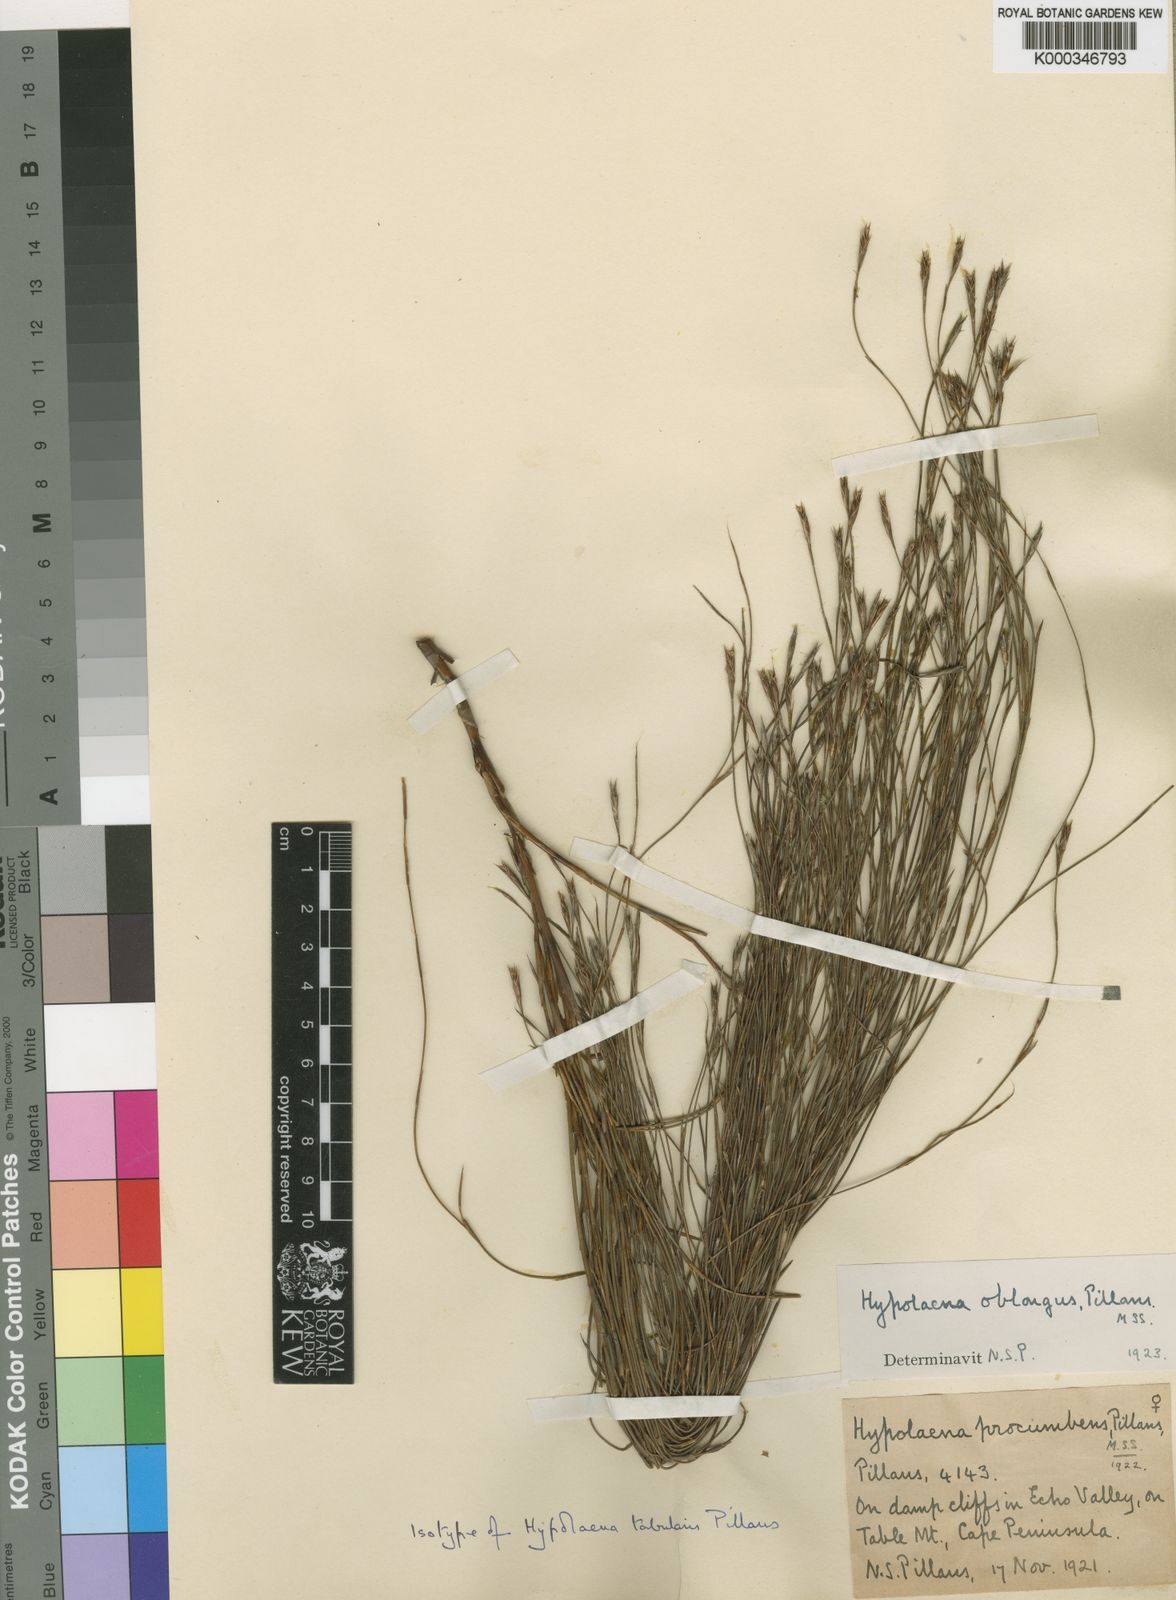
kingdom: Plantae
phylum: Tracheophyta
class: Liliopsida
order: Poales
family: Restionaceae
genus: Anthochortus
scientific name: Anthochortus crinalis
